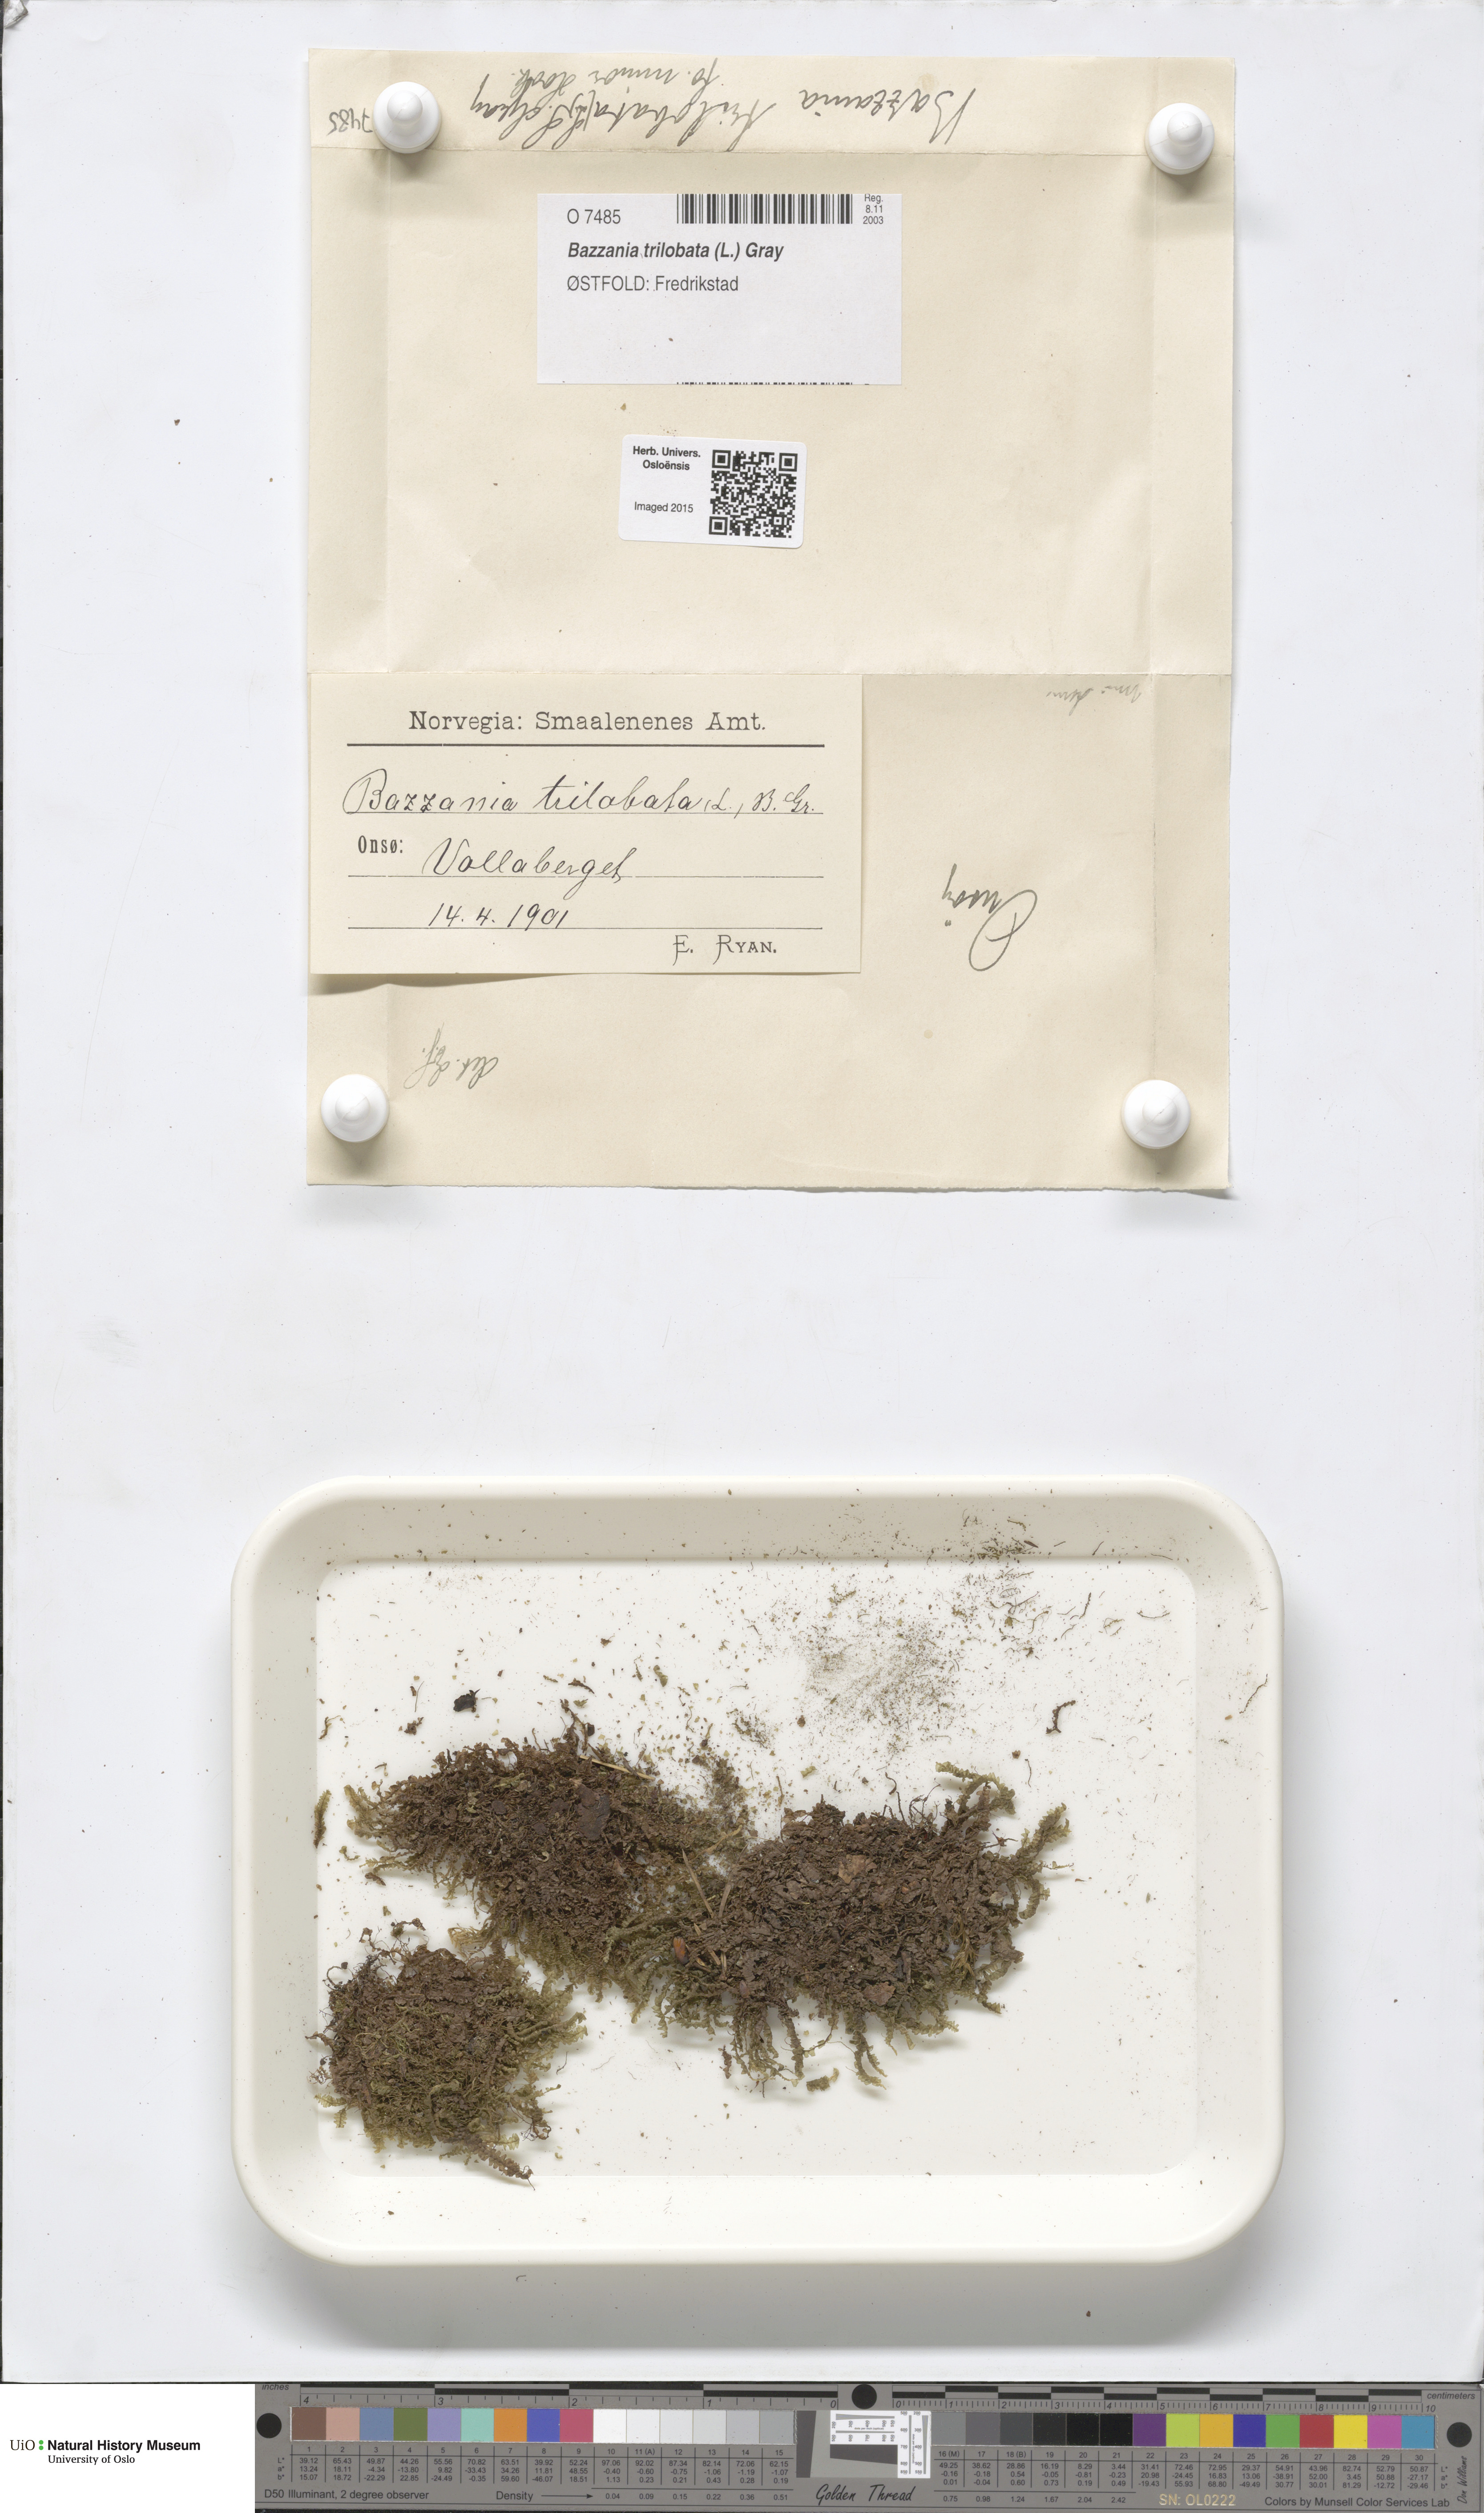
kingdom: Plantae
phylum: Marchantiophyta
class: Jungermanniopsida
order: Jungermanniales
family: Lepidoziaceae
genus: Bazzania
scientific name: Bazzania trilobata
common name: Three-lobed whipwort
